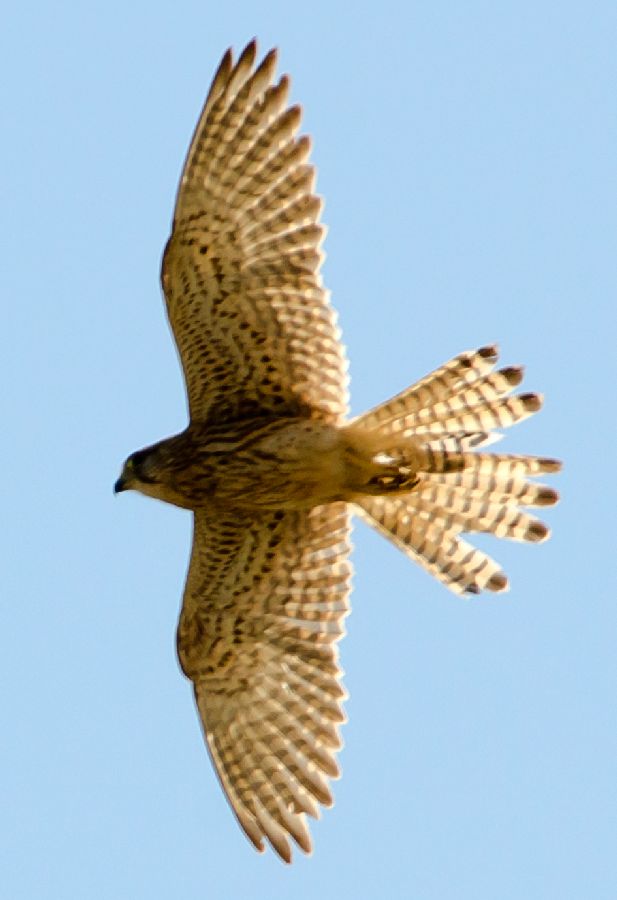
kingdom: Animalia
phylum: Chordata
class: Aves
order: Falconiformes
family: Falconidae
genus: Falco
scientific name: Falco tinnunculus
